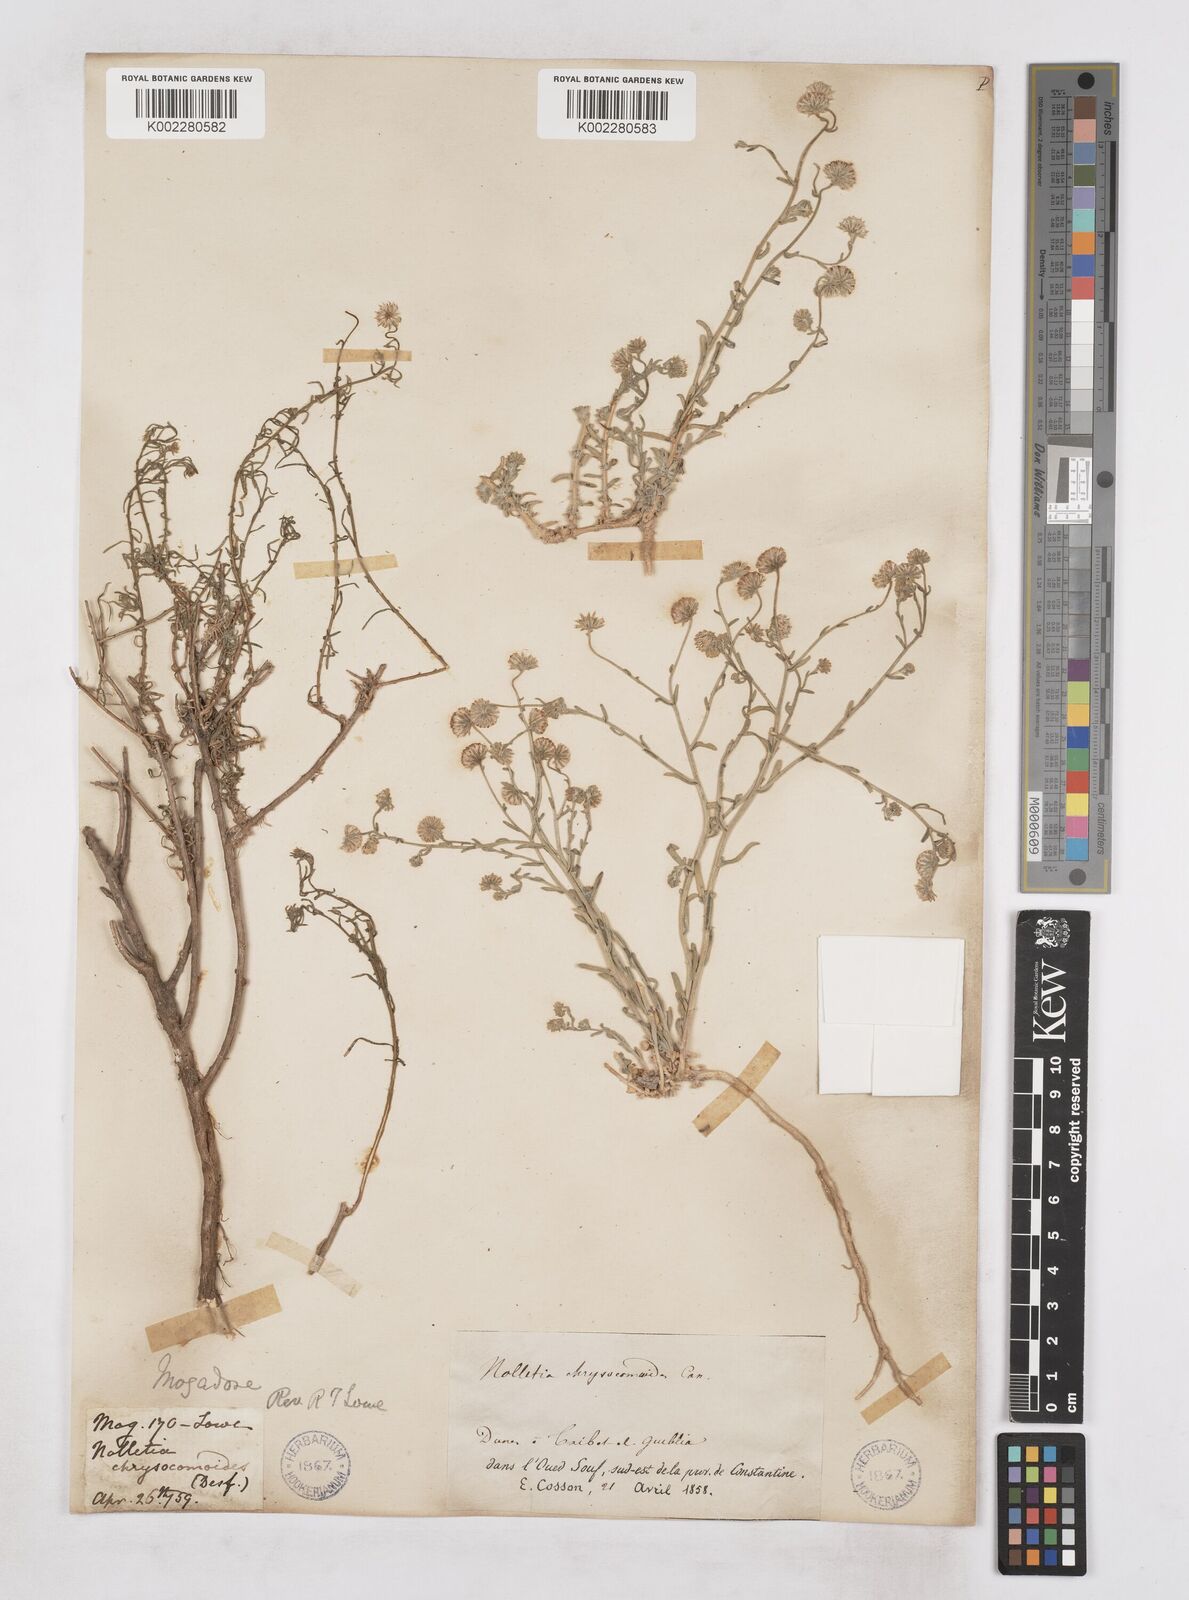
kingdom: Plantae
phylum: Tracheophyta
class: Magnoliopsida
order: Asterales
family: Asteraceae
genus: Nolletia
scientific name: Nolletia chrysocomoides
